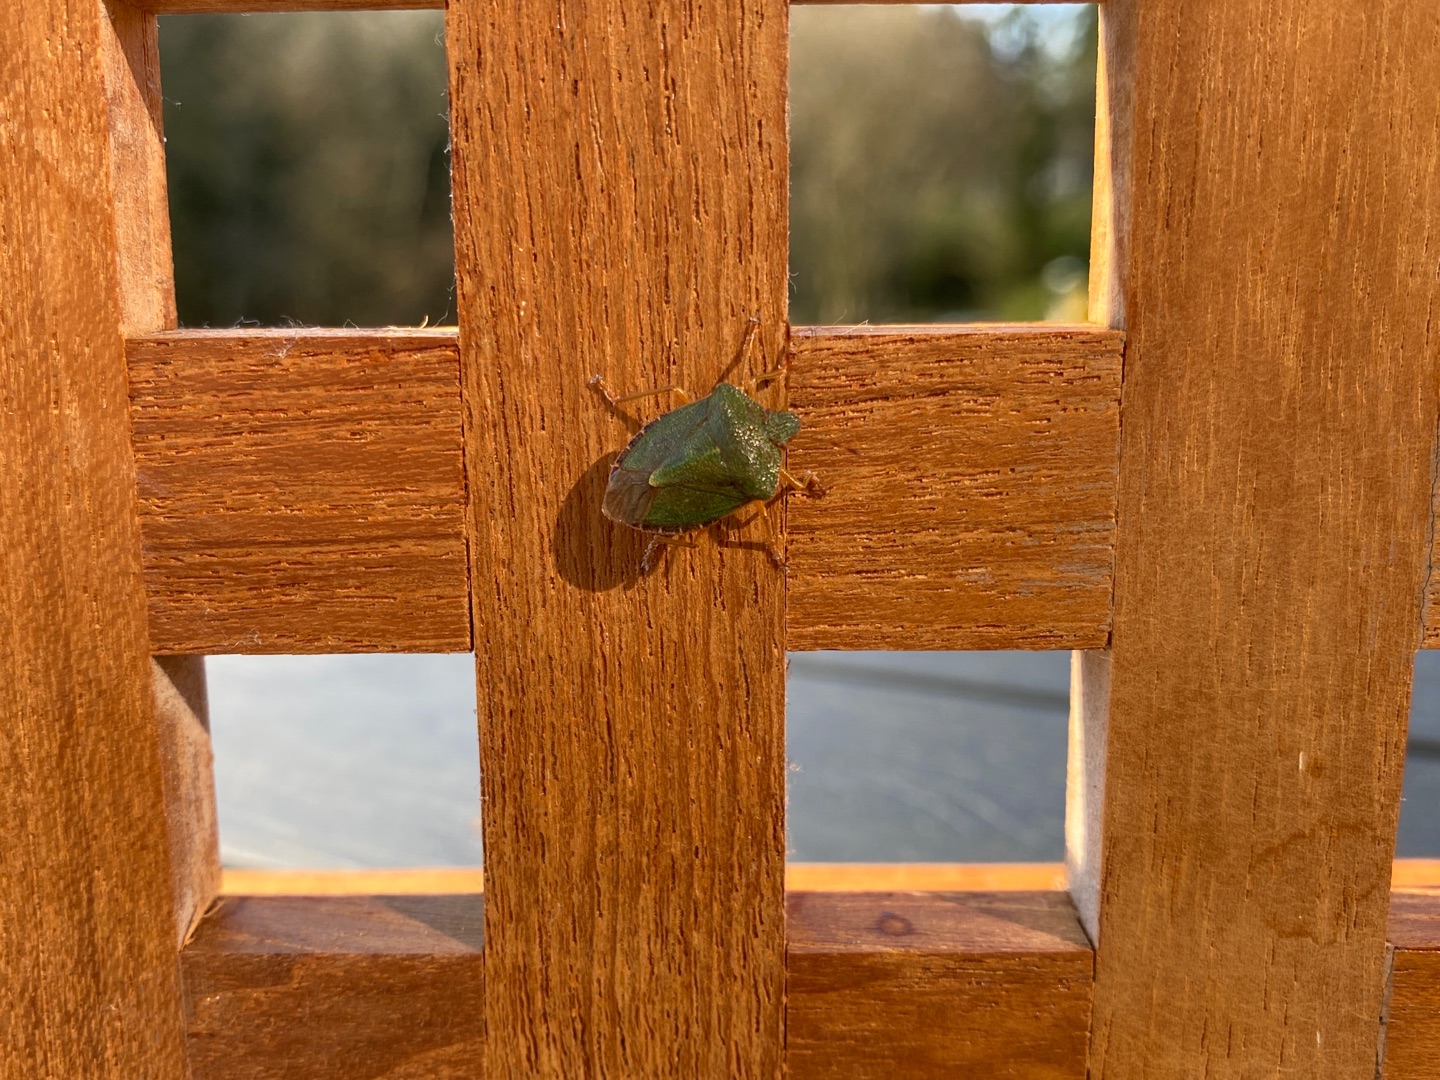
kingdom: Animalia
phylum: Arthropoda
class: Insecta
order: Hemiptera
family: Pentatomidae
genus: Palomena
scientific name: Palomena prasina
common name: Grøn bredtæge
